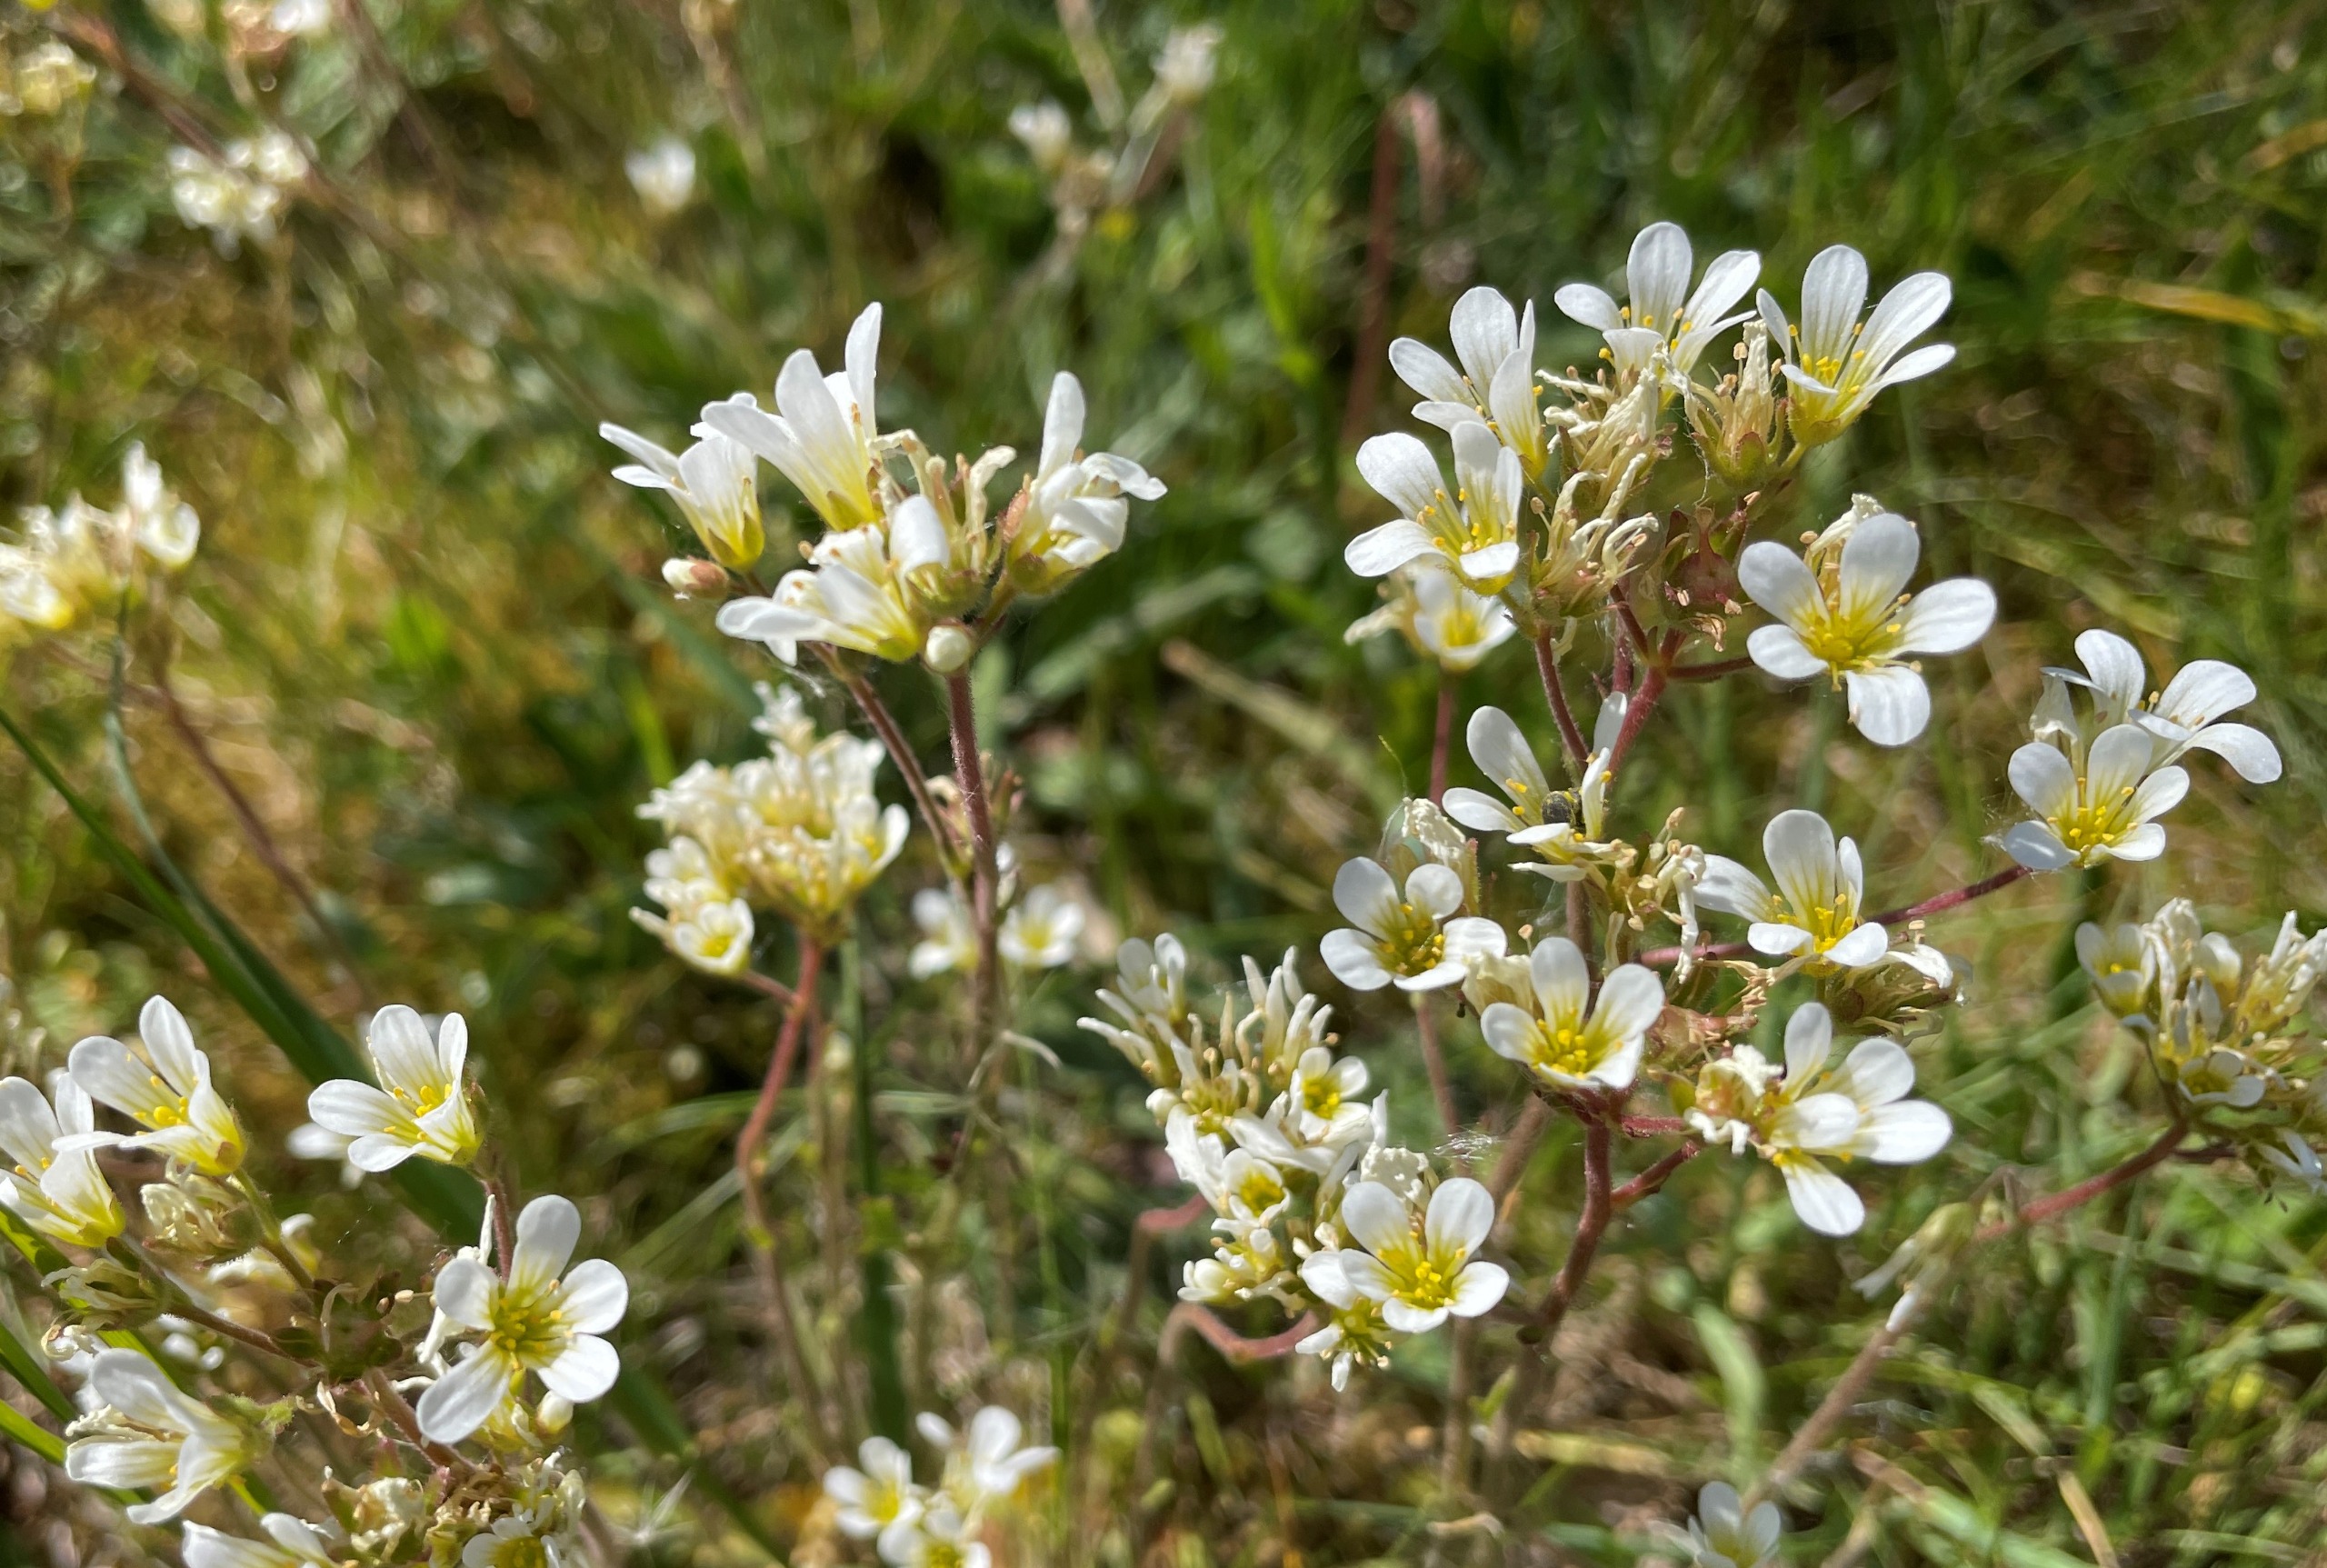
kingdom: Plantae
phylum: Tracheophyta
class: Magnoliopsida
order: Saxifragales
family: Saxifragaceae
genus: Saxifraga
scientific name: Saxifraga granulata
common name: Kornet stenbræk
